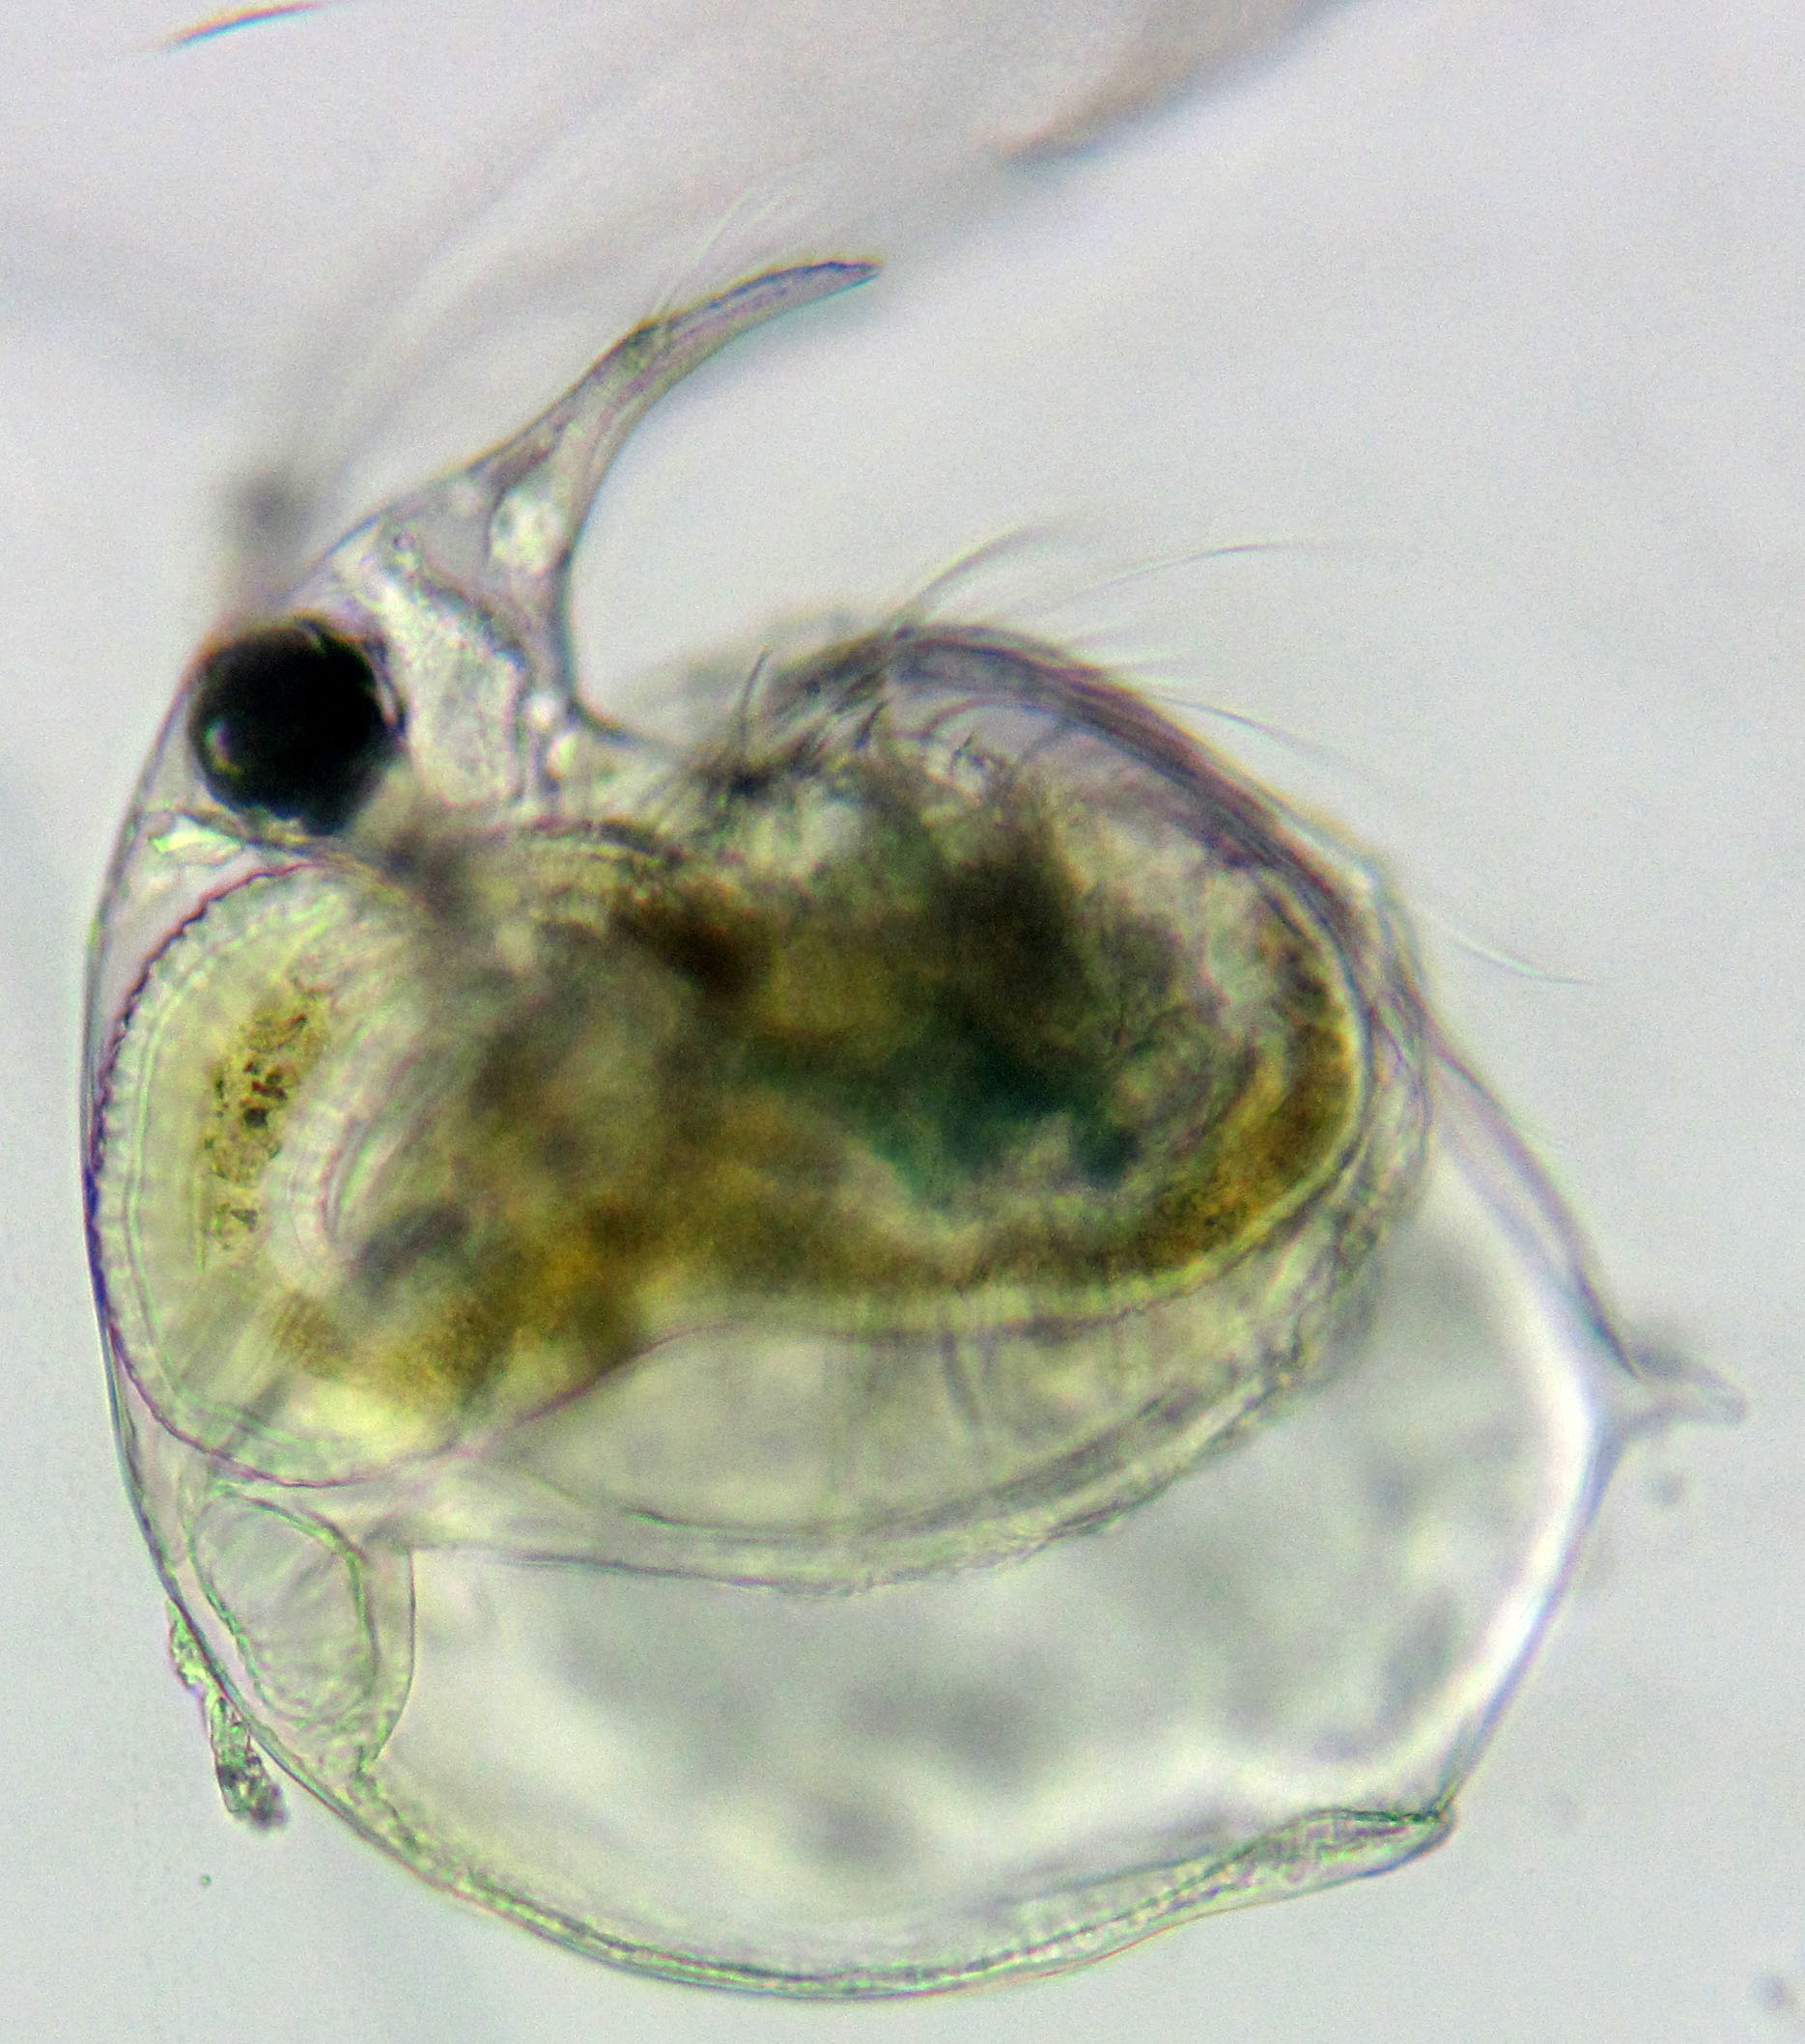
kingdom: Animalia
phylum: Arthropoda
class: Branchiopoda
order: Diplostraca
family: Bosminidae
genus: Bosmina
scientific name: Bosmina longirostris
